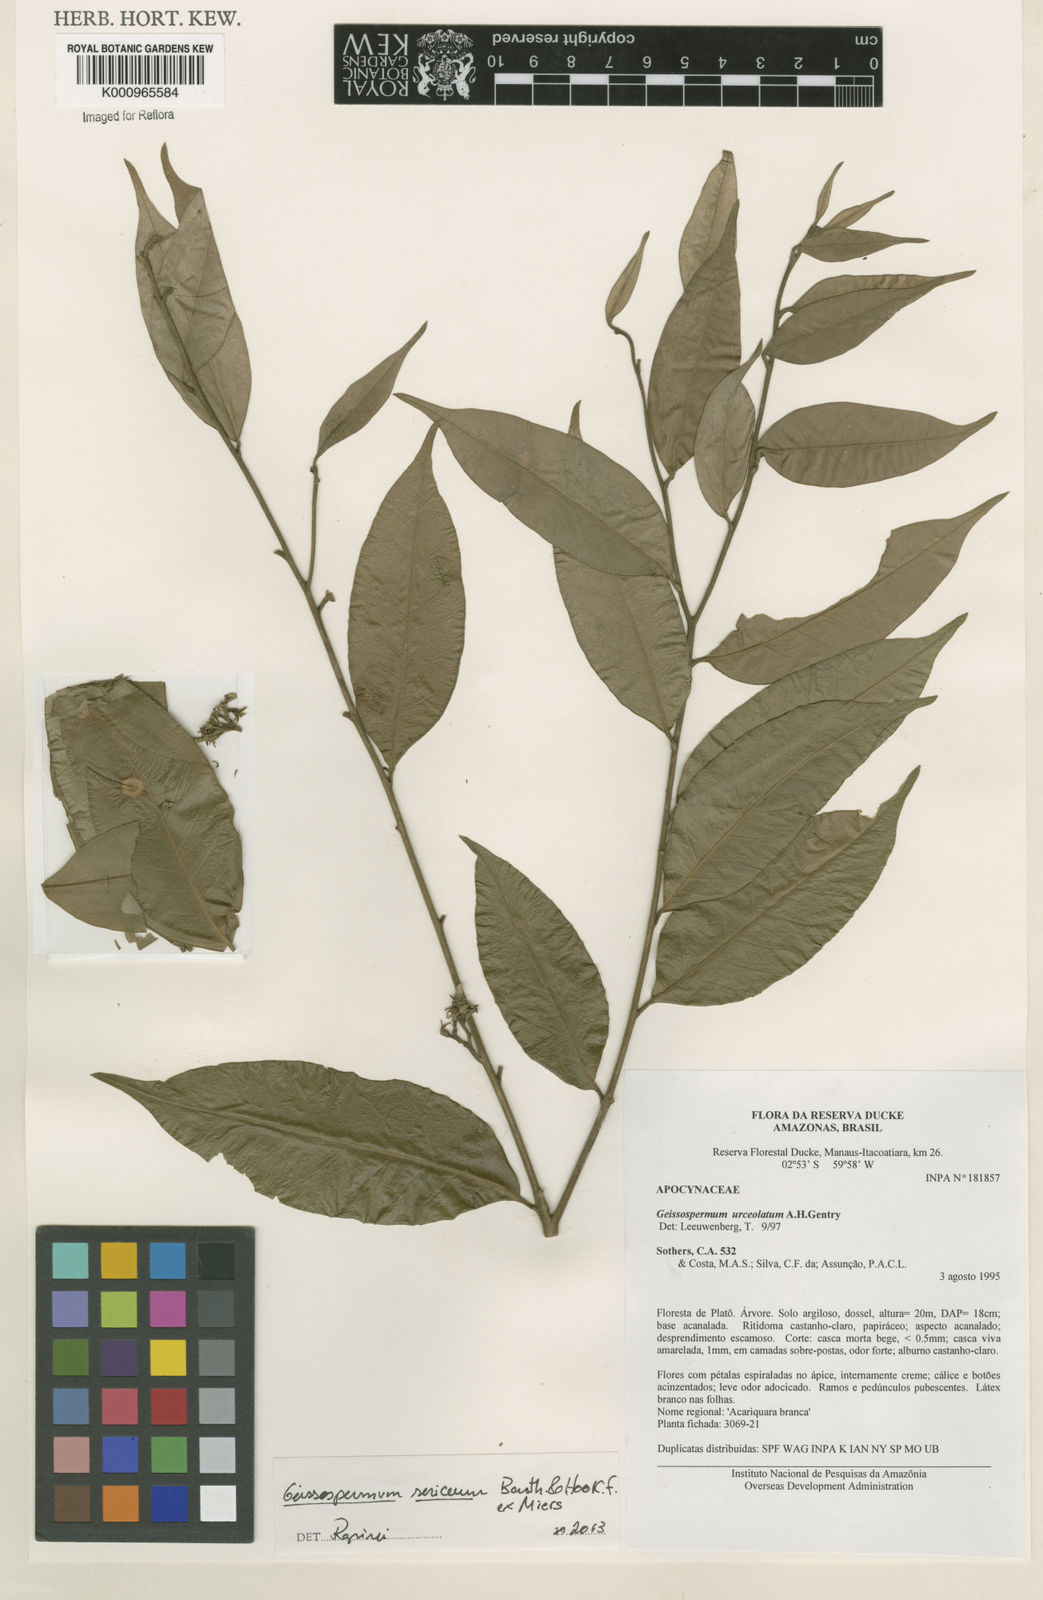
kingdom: Plantae
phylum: Tracheophyta
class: Magnoliopsida
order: Gentianales
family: Apocynaceae
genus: Geissospermum
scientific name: Geissospermum argenteum
